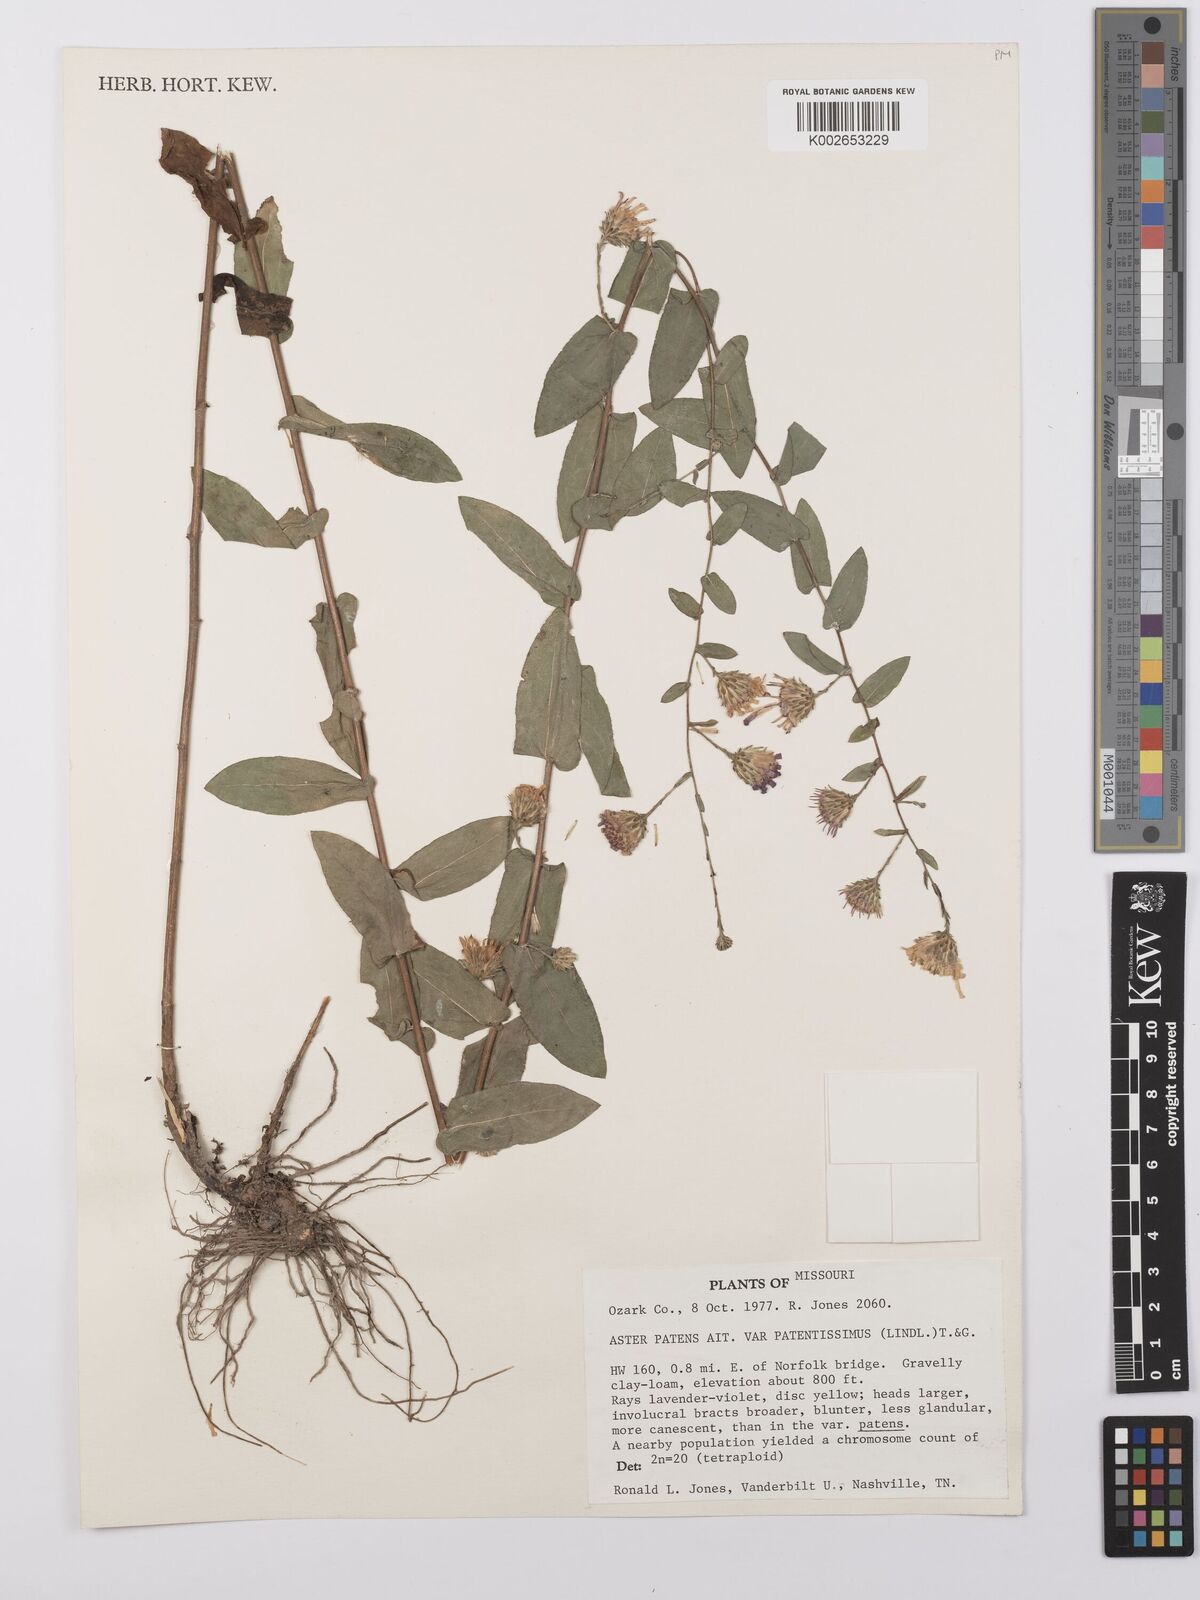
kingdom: Plantae
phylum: Tracheophyta
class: Magnoliopsida
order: Asterales
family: Asteraceae
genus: Symphyotrichum
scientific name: Symphyotrichum patens
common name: Late purple aster
